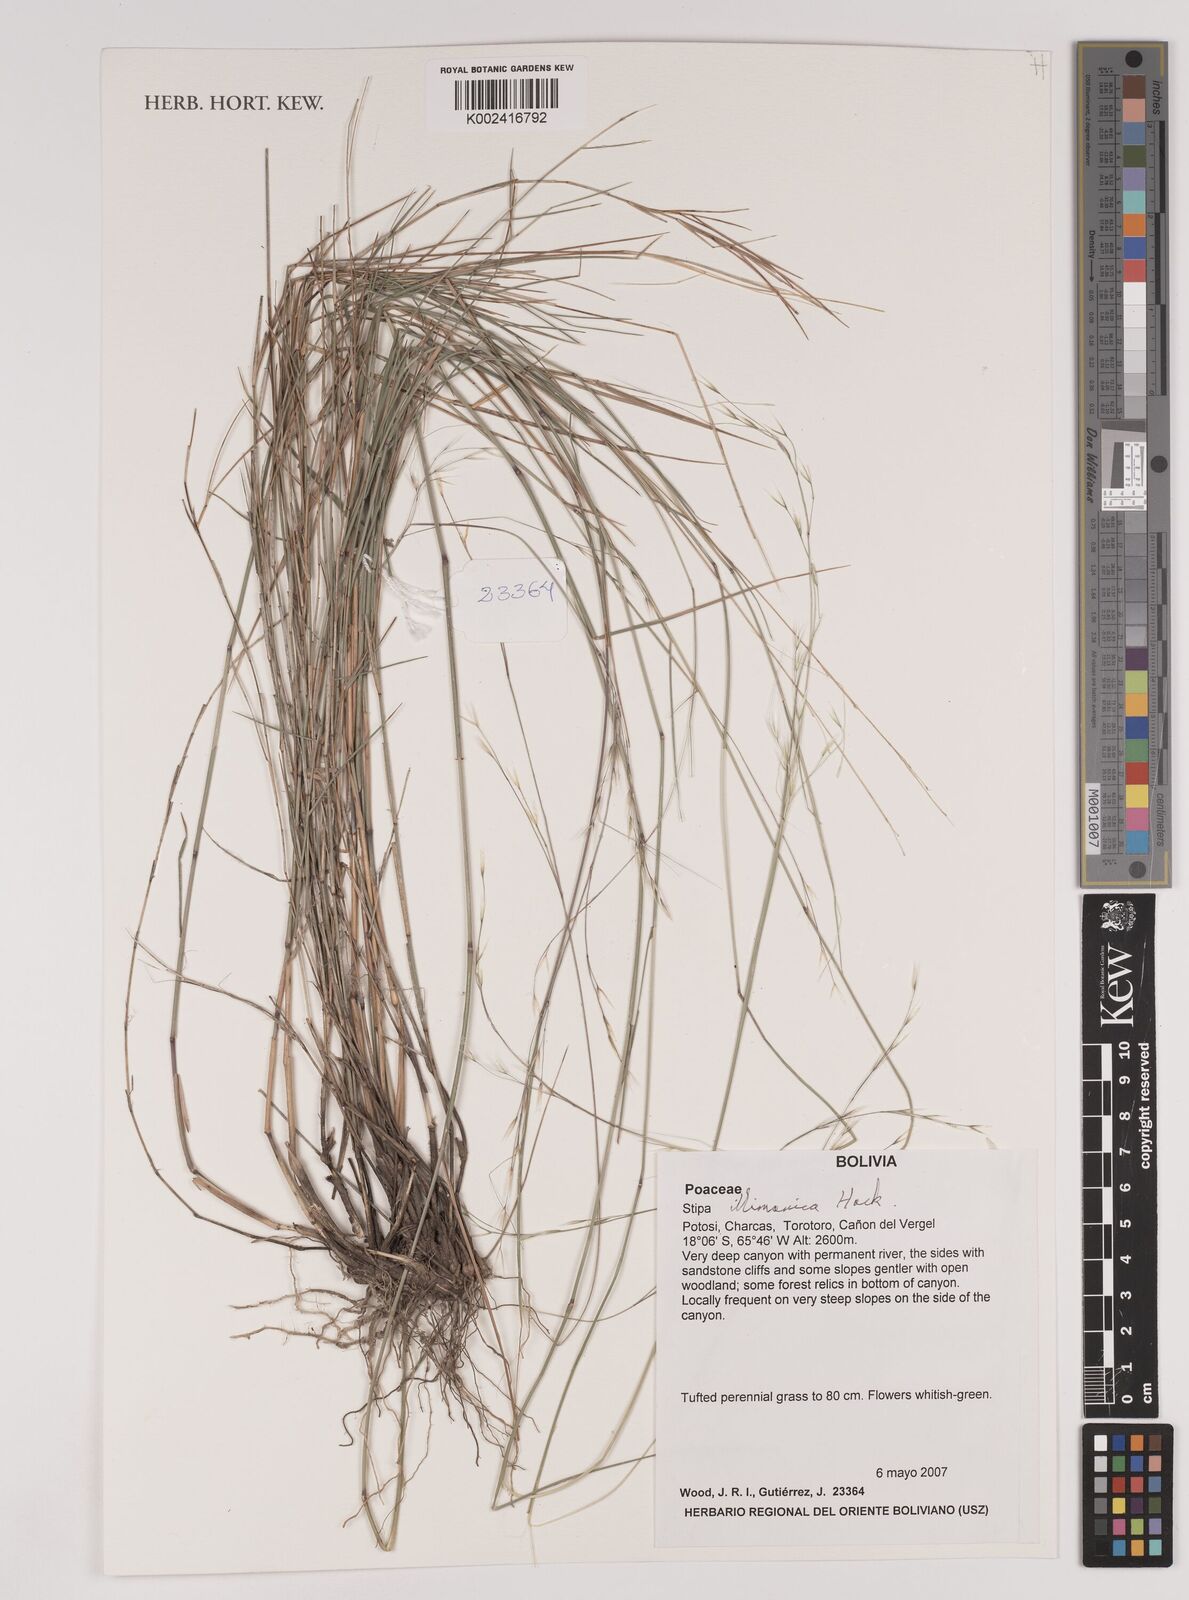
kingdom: Plantae
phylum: Tracheophyta
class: Liliopsida
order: Poales
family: Poaceae
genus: Stipa
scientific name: Stipa illimanica
